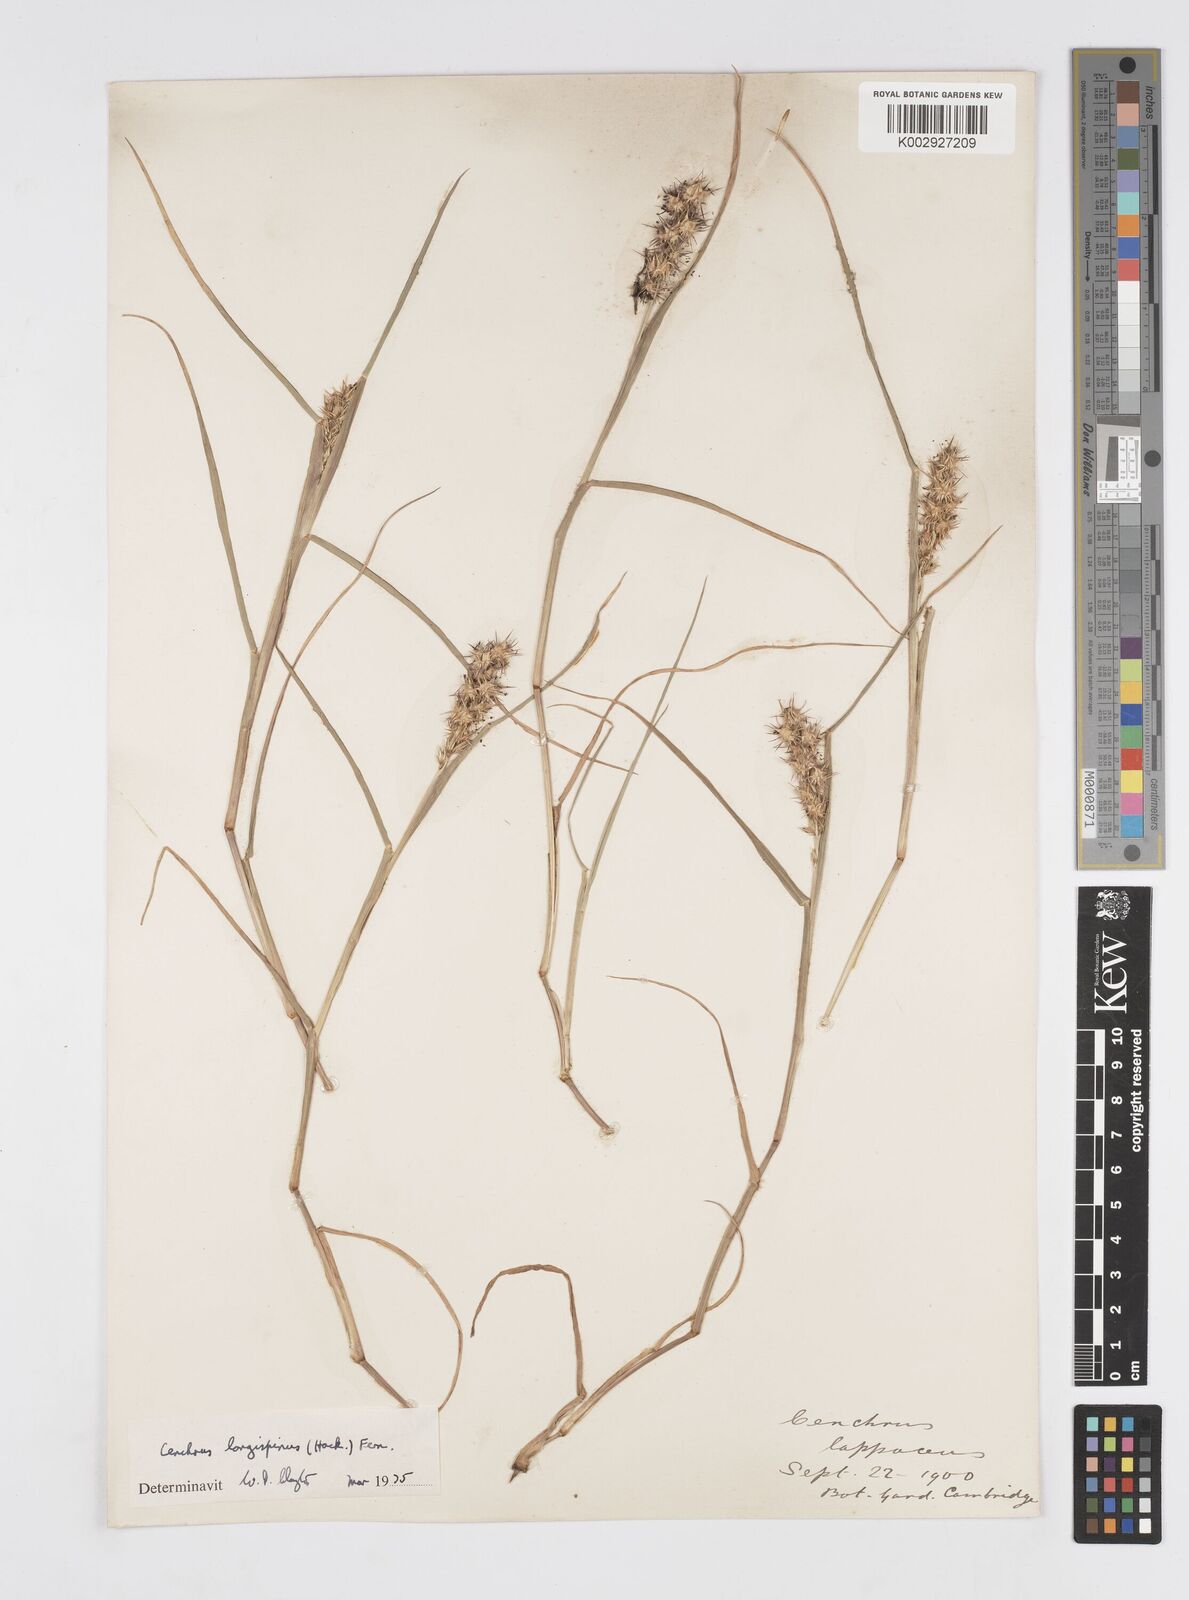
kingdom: Plantae
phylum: Tracheophyta
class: Liliopsida
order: Poales
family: Poaceae
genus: Cenchrus
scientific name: Cenchrus longispinus
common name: Mat sandbur
